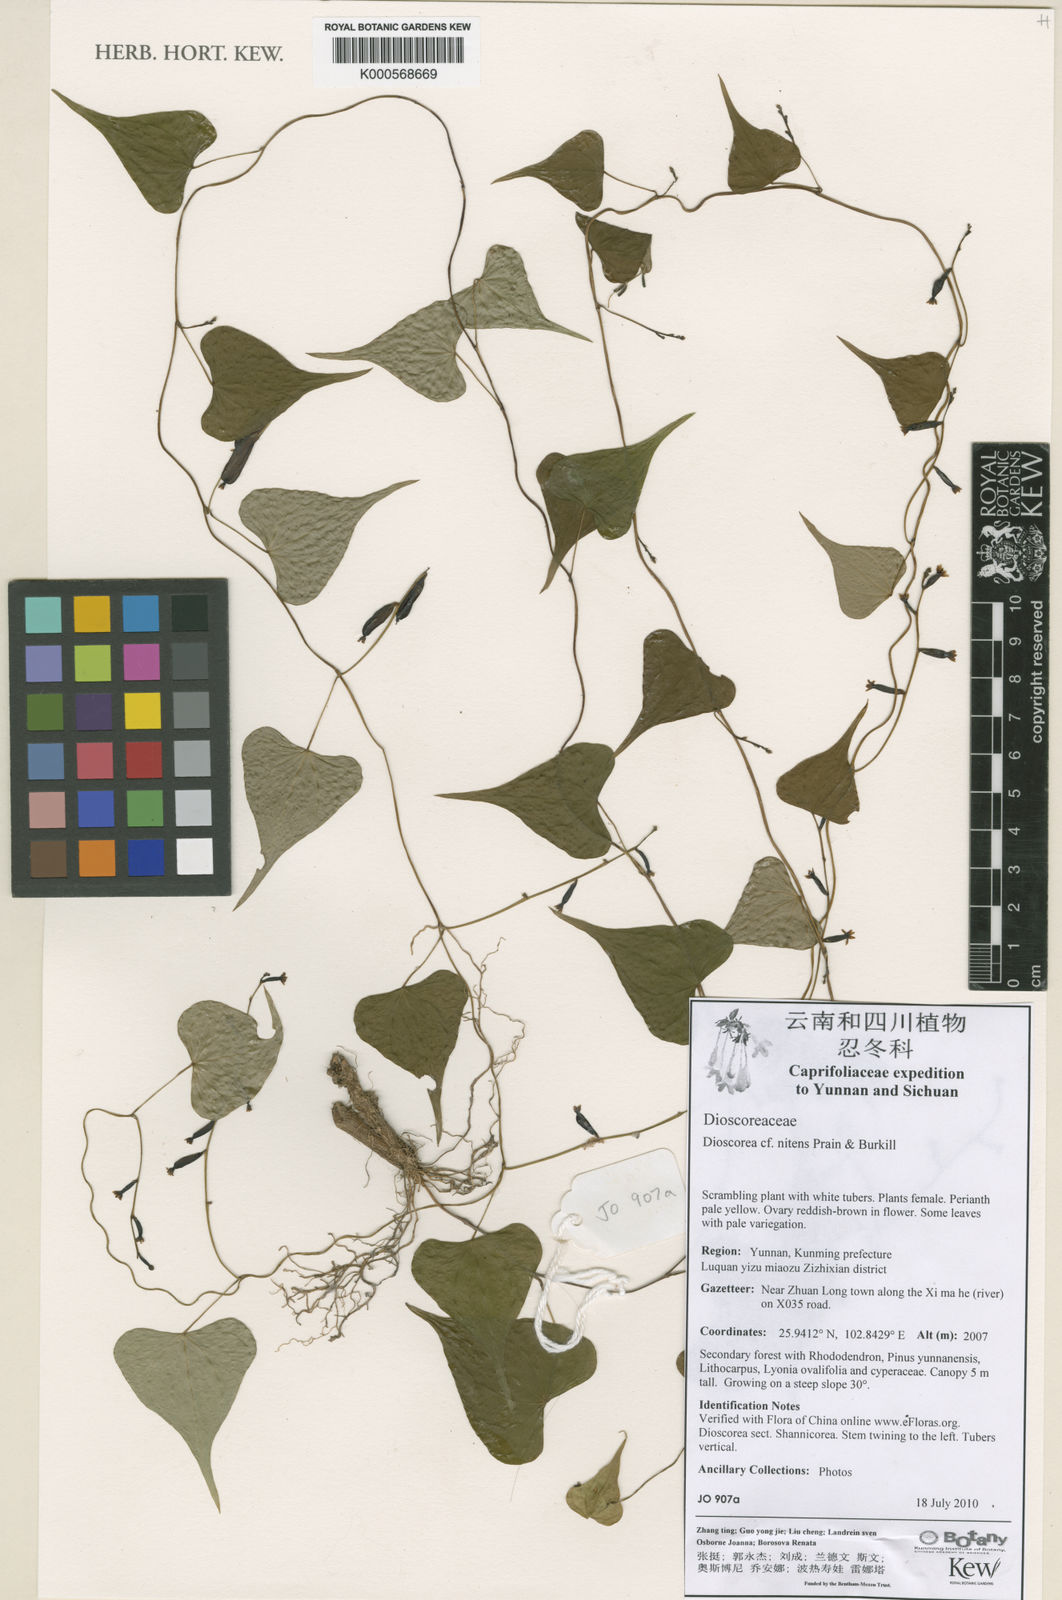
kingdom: Plantae
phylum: Tracheophyta
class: Liliopsida
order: Dioscoreales
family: Dioscoreaceae
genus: Dioscorea
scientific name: Dioscorea nitens
